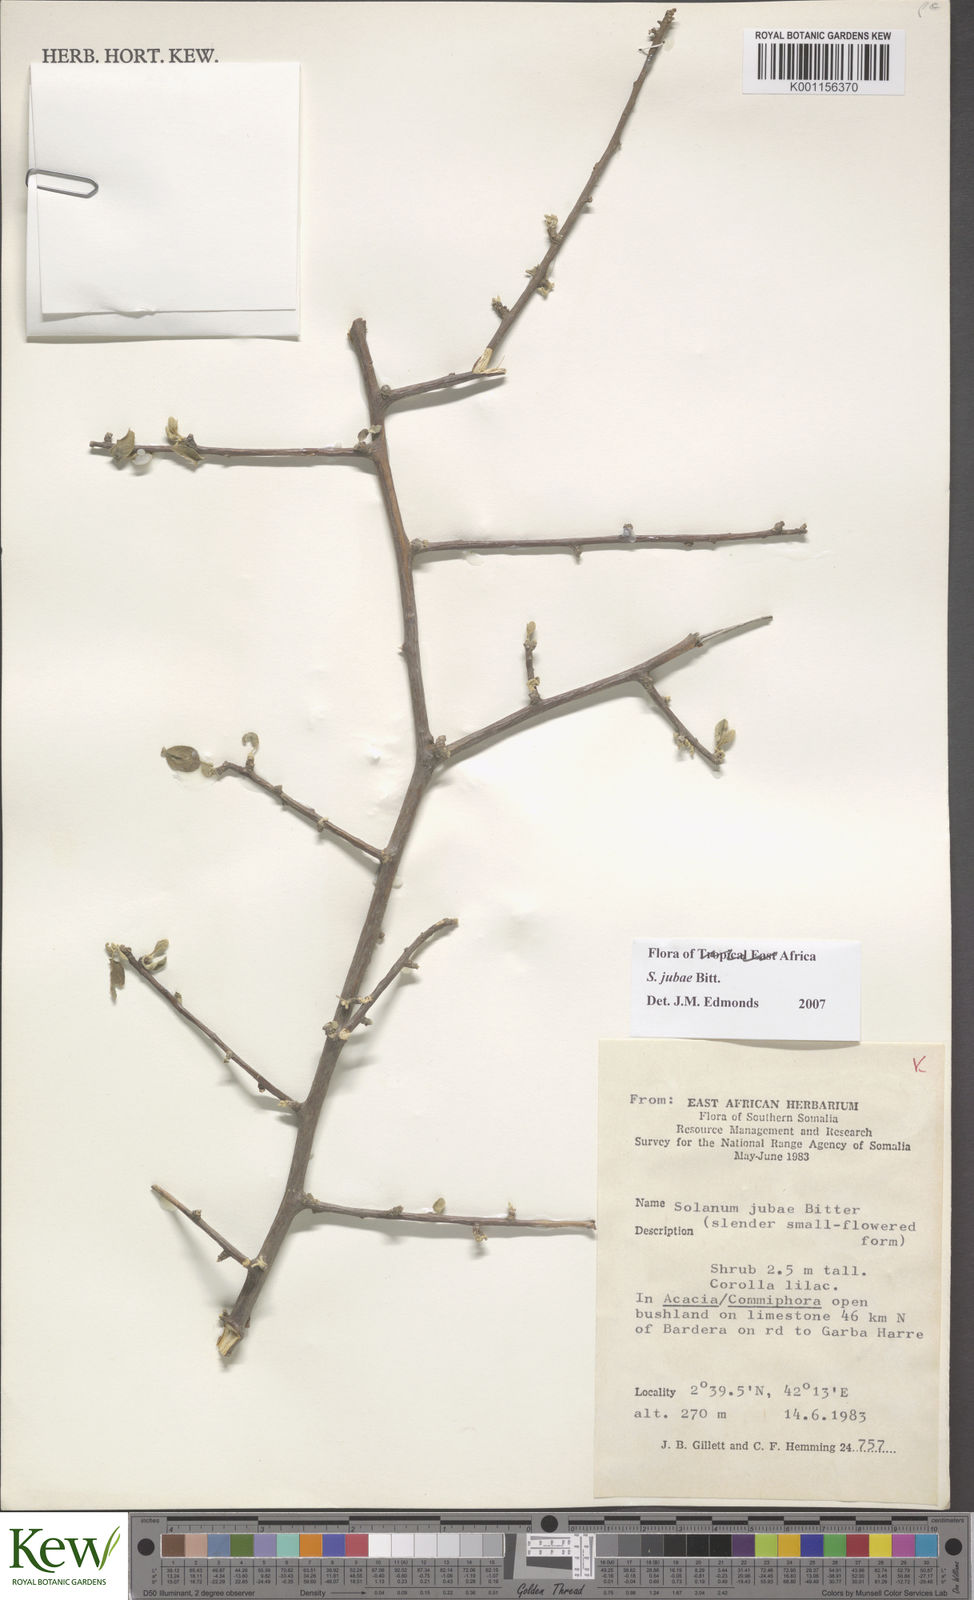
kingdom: Plantae
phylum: Tracheophyta
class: Magnoliopsida
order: Solanales
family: Solanaceae
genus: Solanum
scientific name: Solanum jubae
